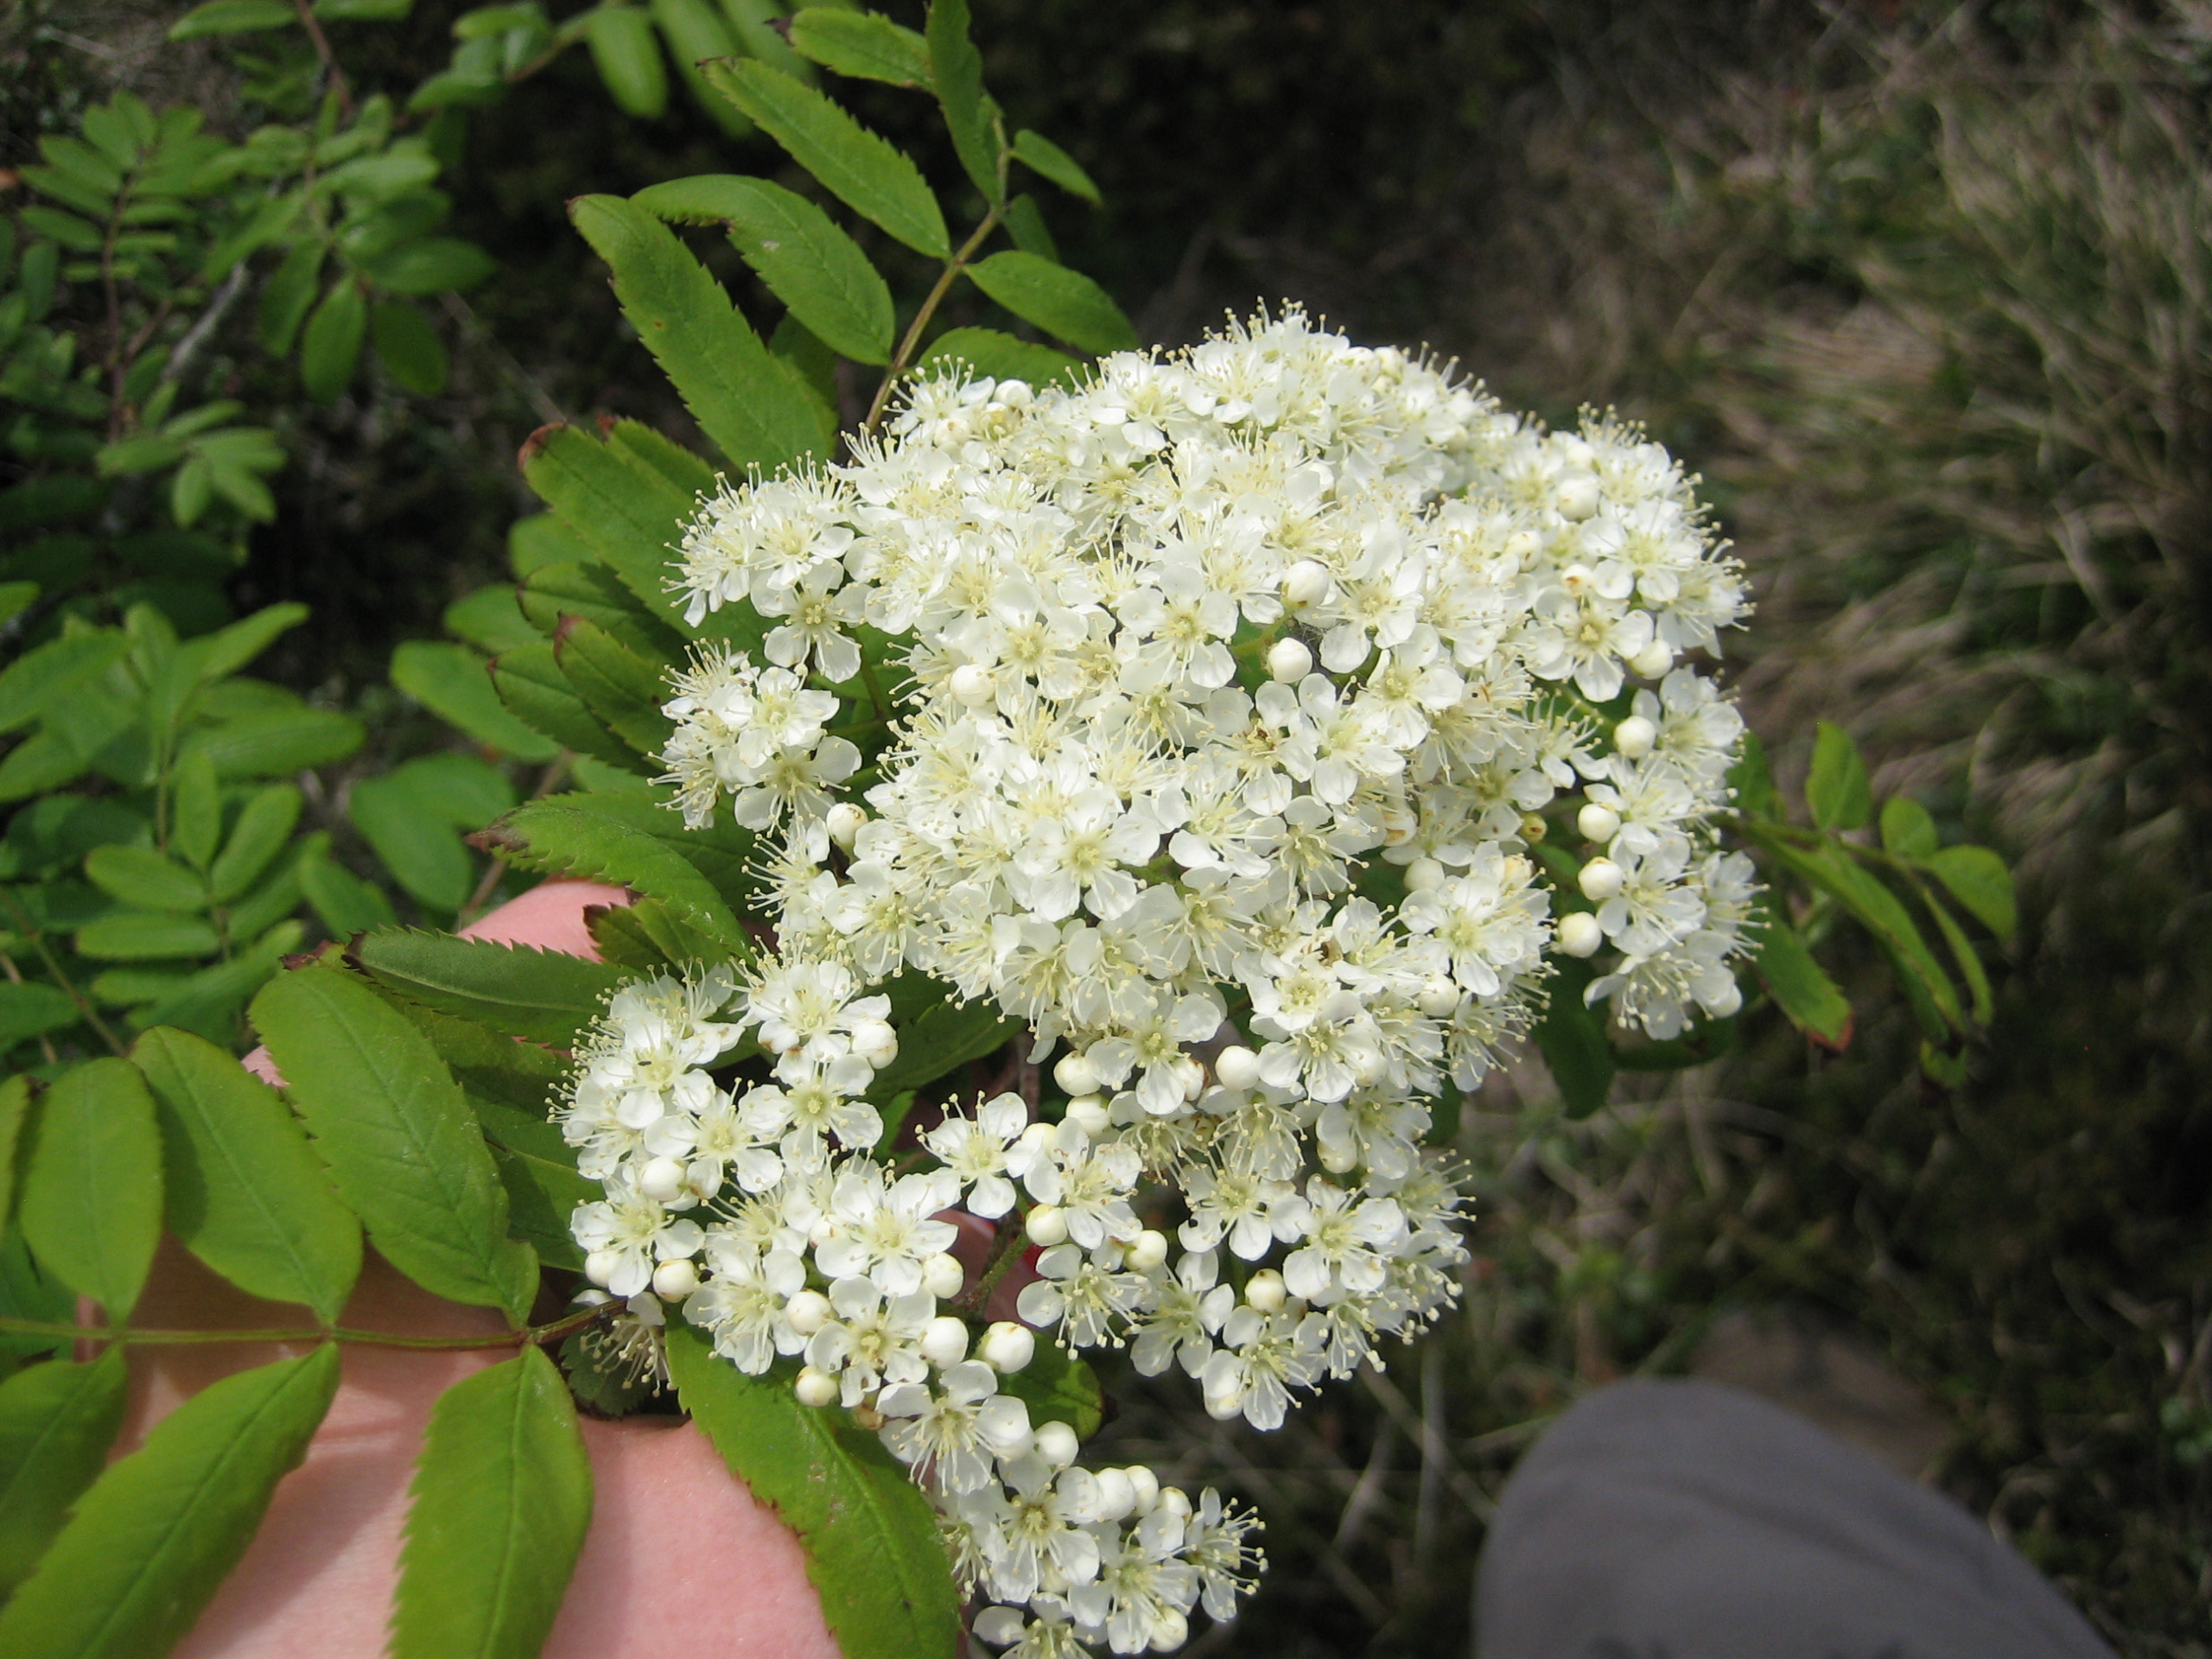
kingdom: Plantae
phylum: Tracheophyta
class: Magnoliopsida
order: Rosales
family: Rosaceae
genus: Sorbus
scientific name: Sorbus aucuparia
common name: Almindelig røn
